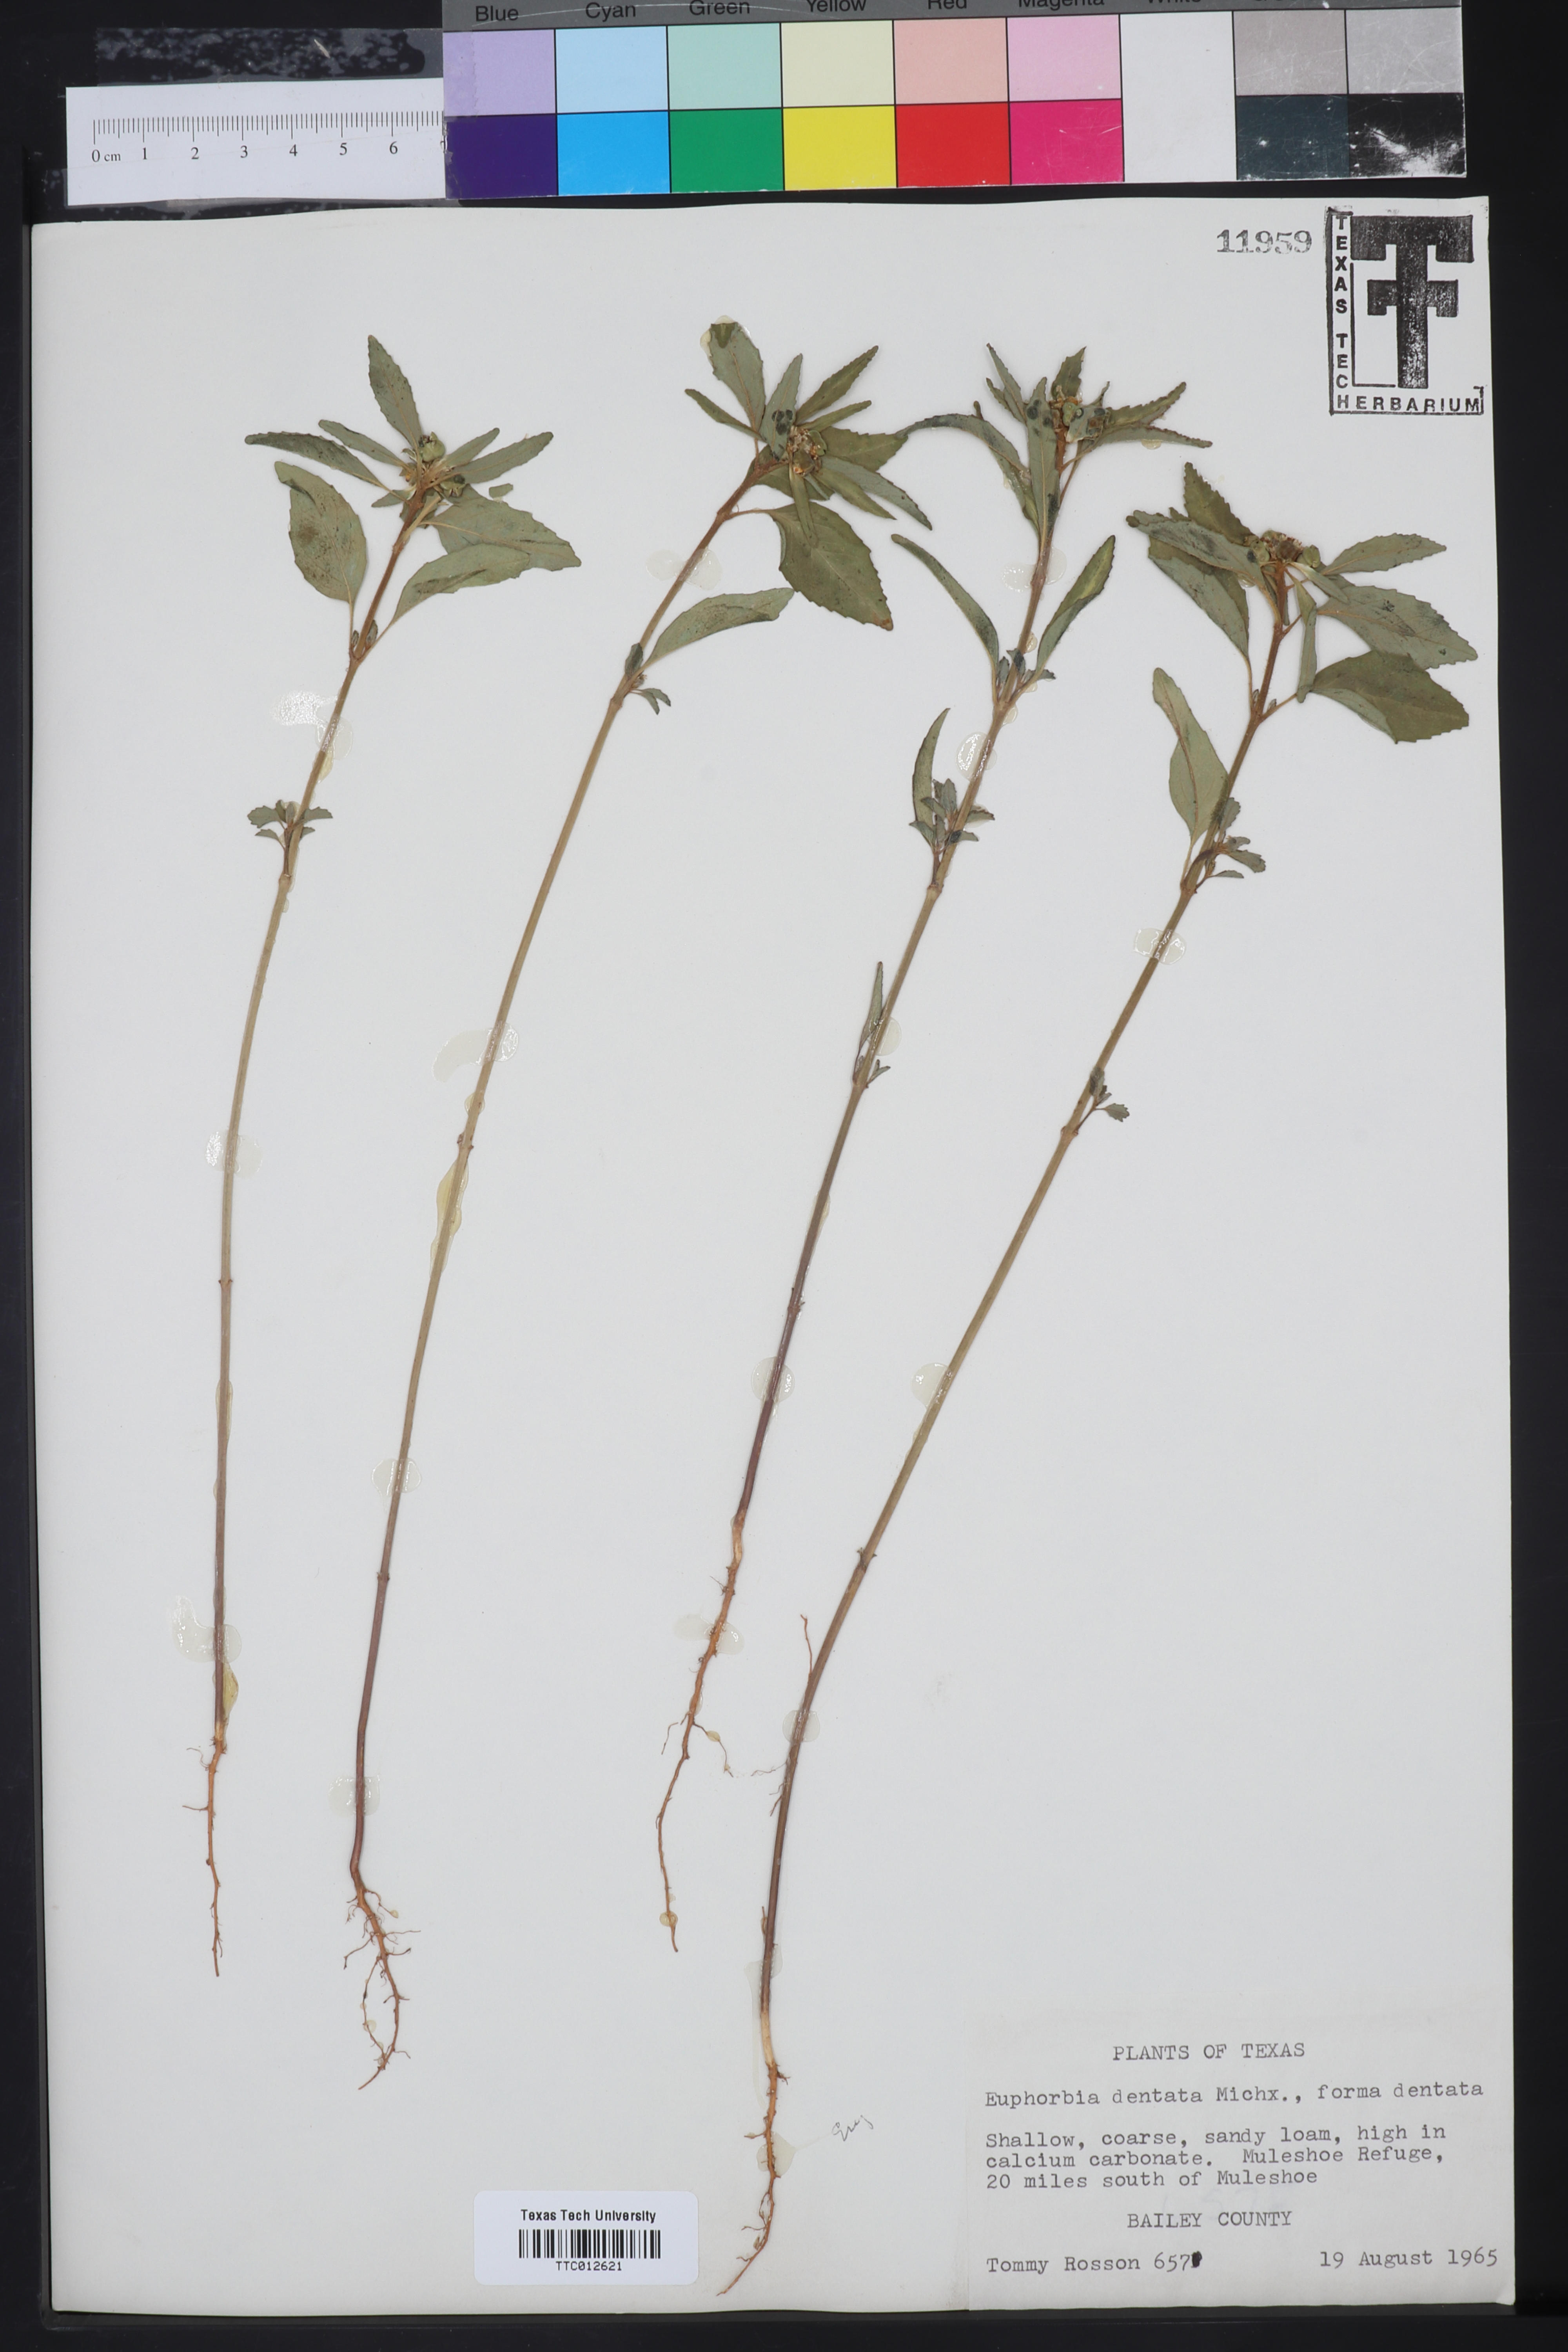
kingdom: Plantae
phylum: Tracheophyta
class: Magnoliopsida
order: Malpighiales
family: Euphorbiaceae
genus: Euphorbia
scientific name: Euphorbia dentata
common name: Dentate spurge
